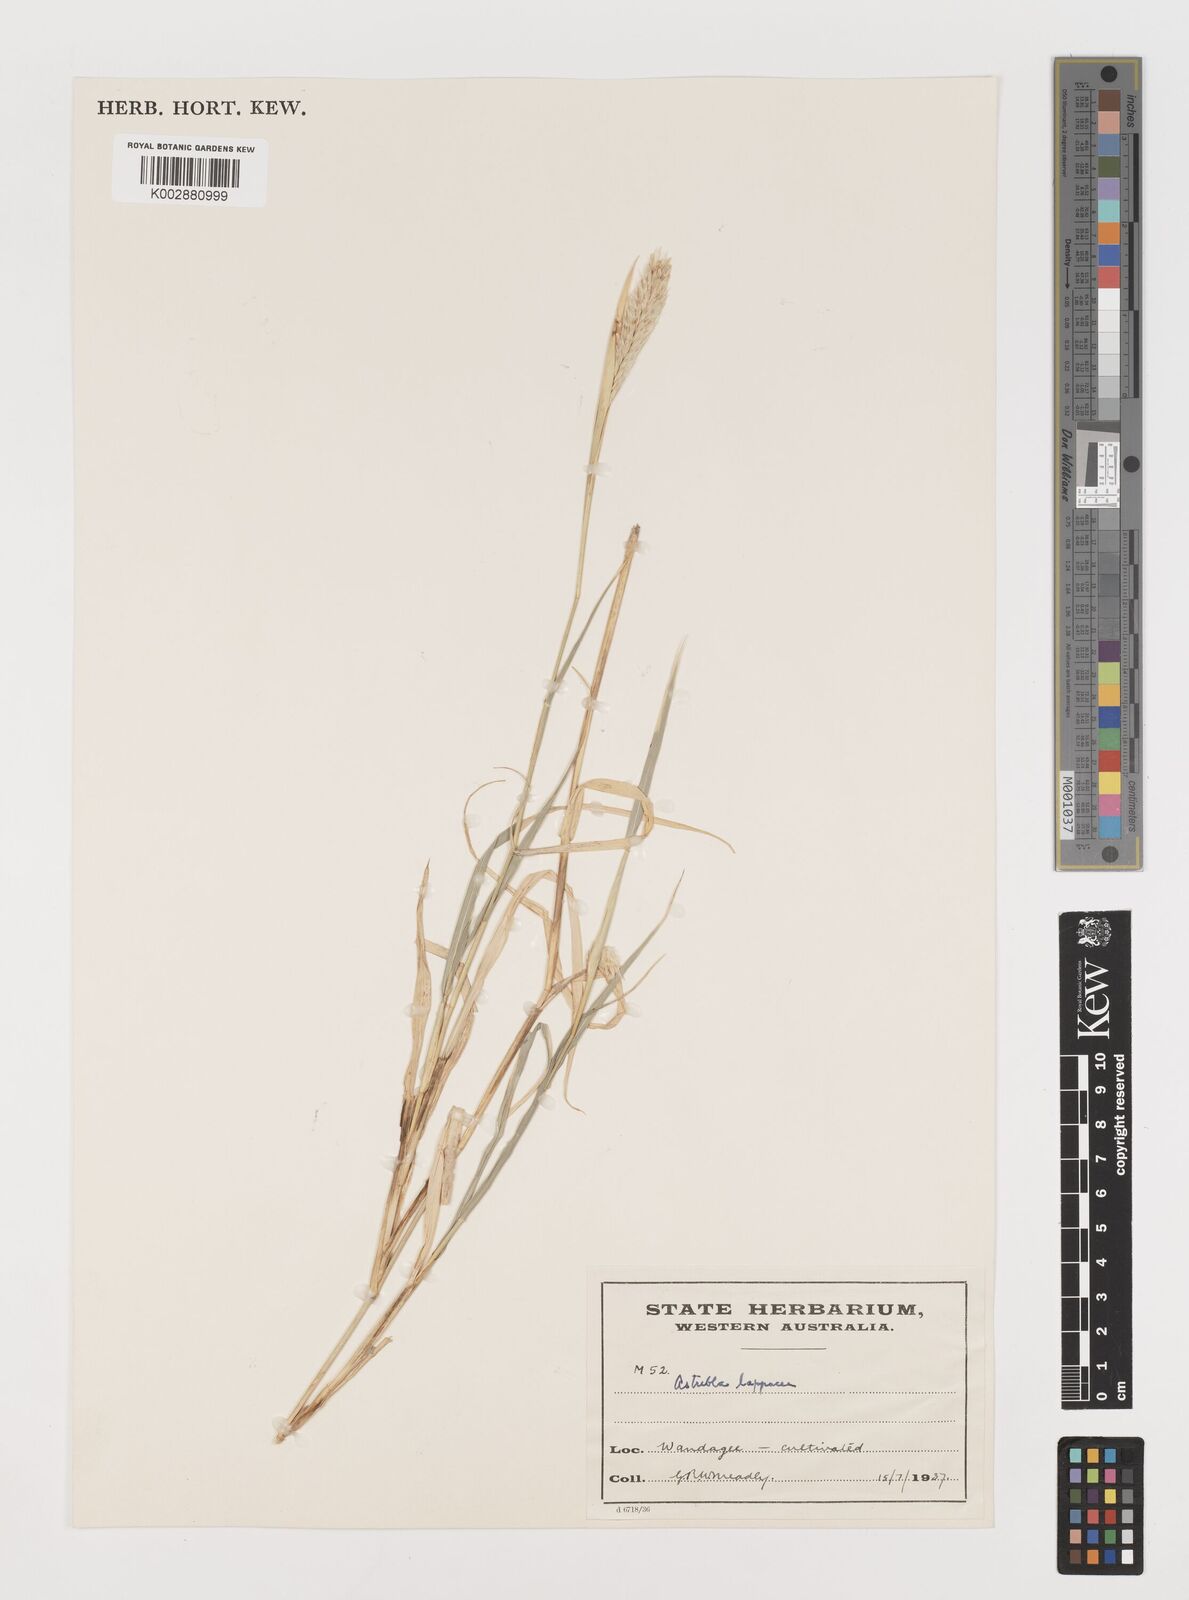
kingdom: Plantae
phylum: Tracheophyta
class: Liliopsida
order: Poales
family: Poaceae
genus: Astrebla
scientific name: Astrebla lappacea
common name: Curly mitchell grass
